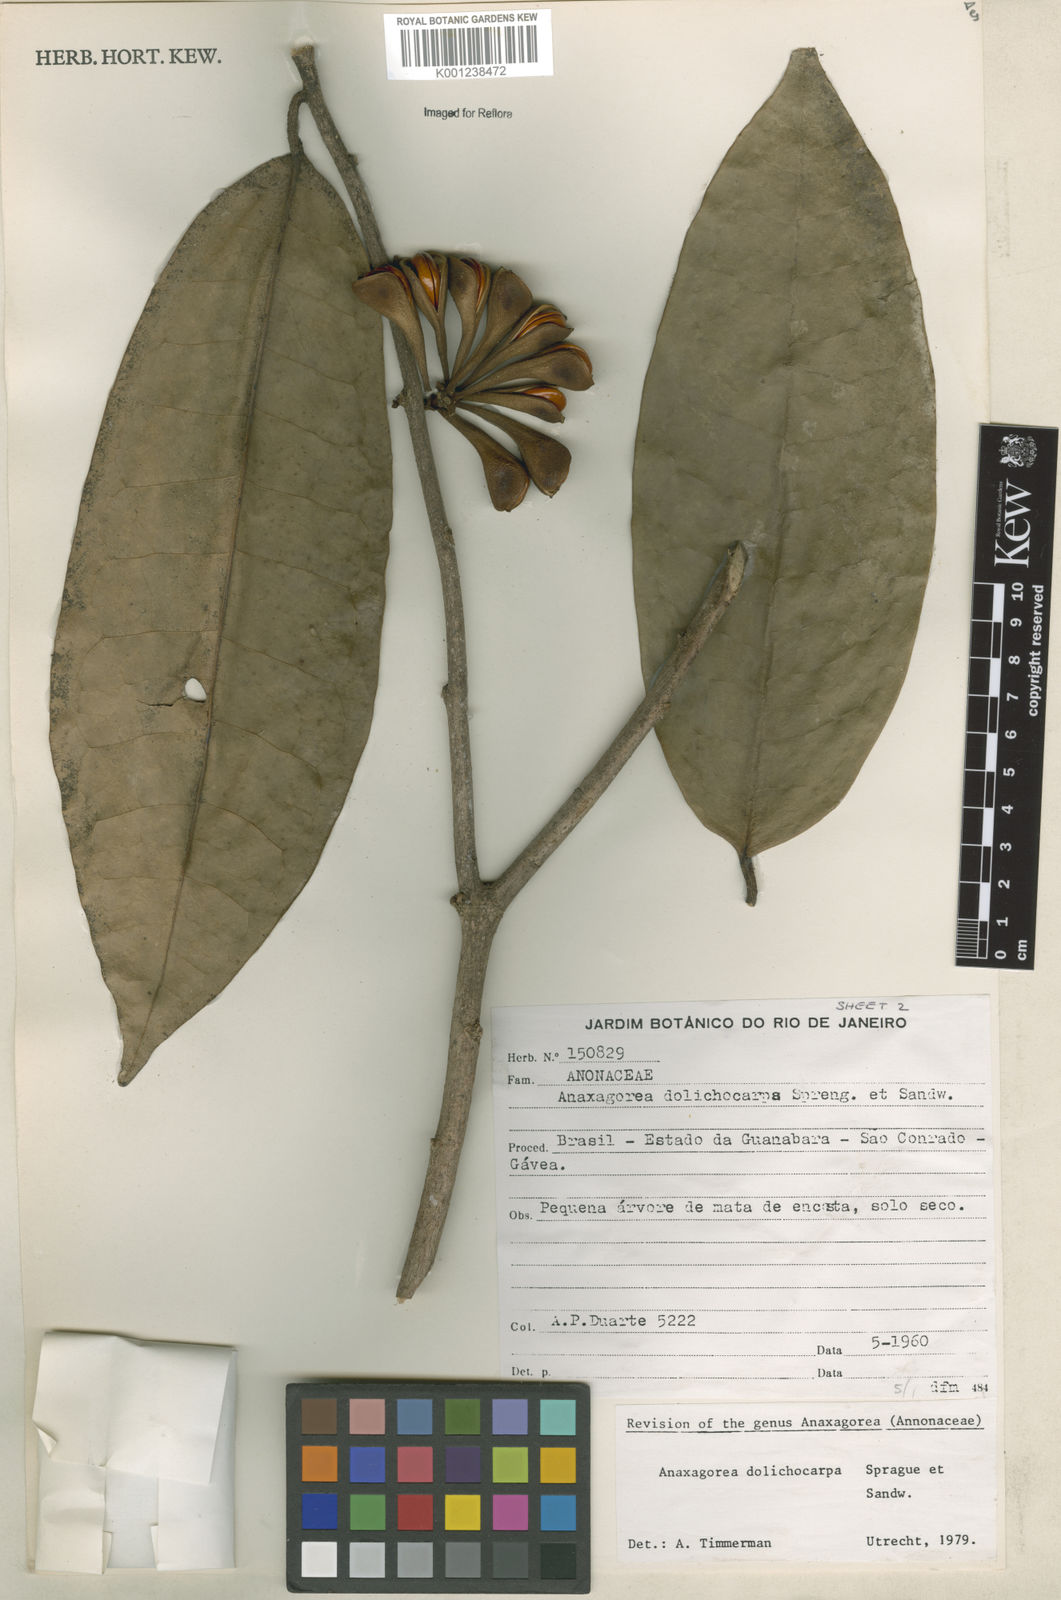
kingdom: Plantae
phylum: Tracheophyta
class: Magnoliopsida
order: Magnoliales
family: Annonaceae
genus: Anaxagorea
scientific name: Anaxagorea dolichocarpa
